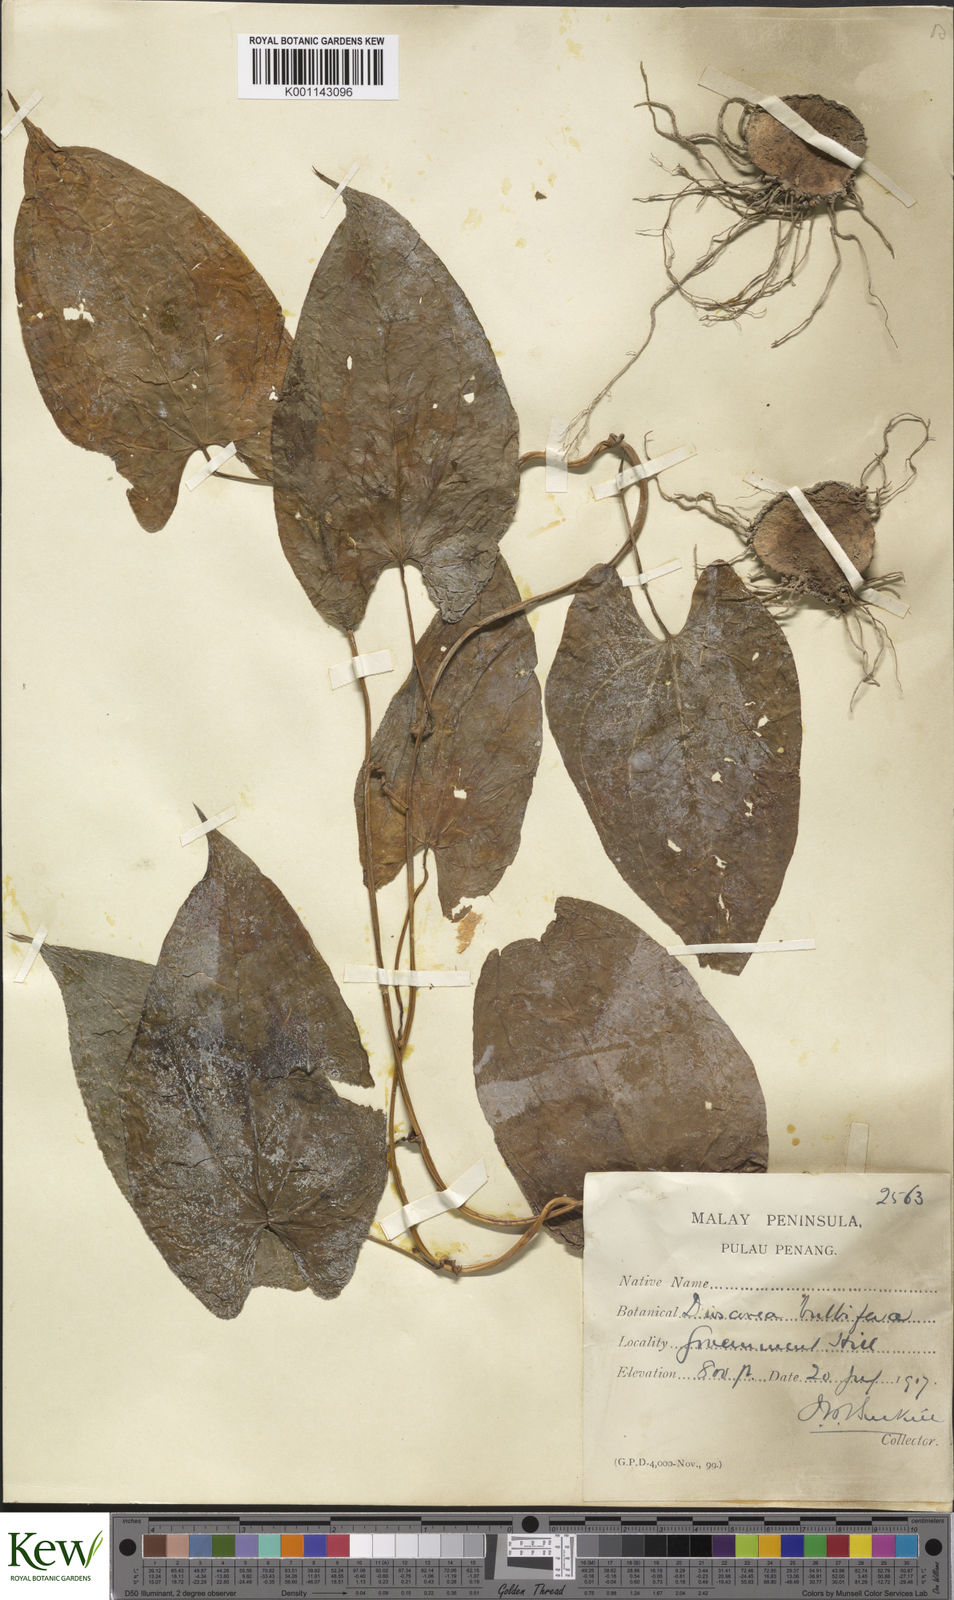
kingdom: Plantae
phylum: Tracheophyta
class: Liliopsida
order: Dioscoreales
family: Dioscoreaceae
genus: Dioscorea
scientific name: Dioscorea bulbifera
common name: Air yam
